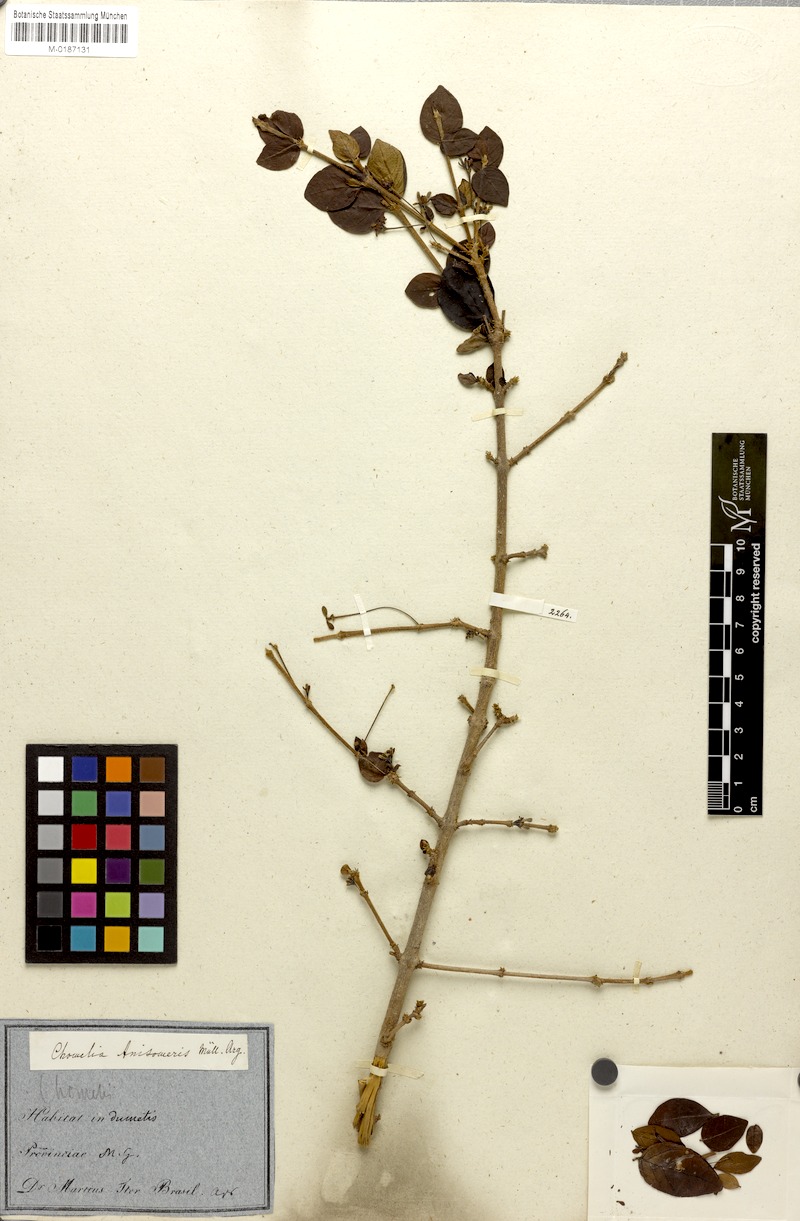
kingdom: Plantae
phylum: Tracheophyta
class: Magnoliopsida
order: Gentianales
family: Rubiaceae
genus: Chomelia
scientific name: Chomelia anisomeris
